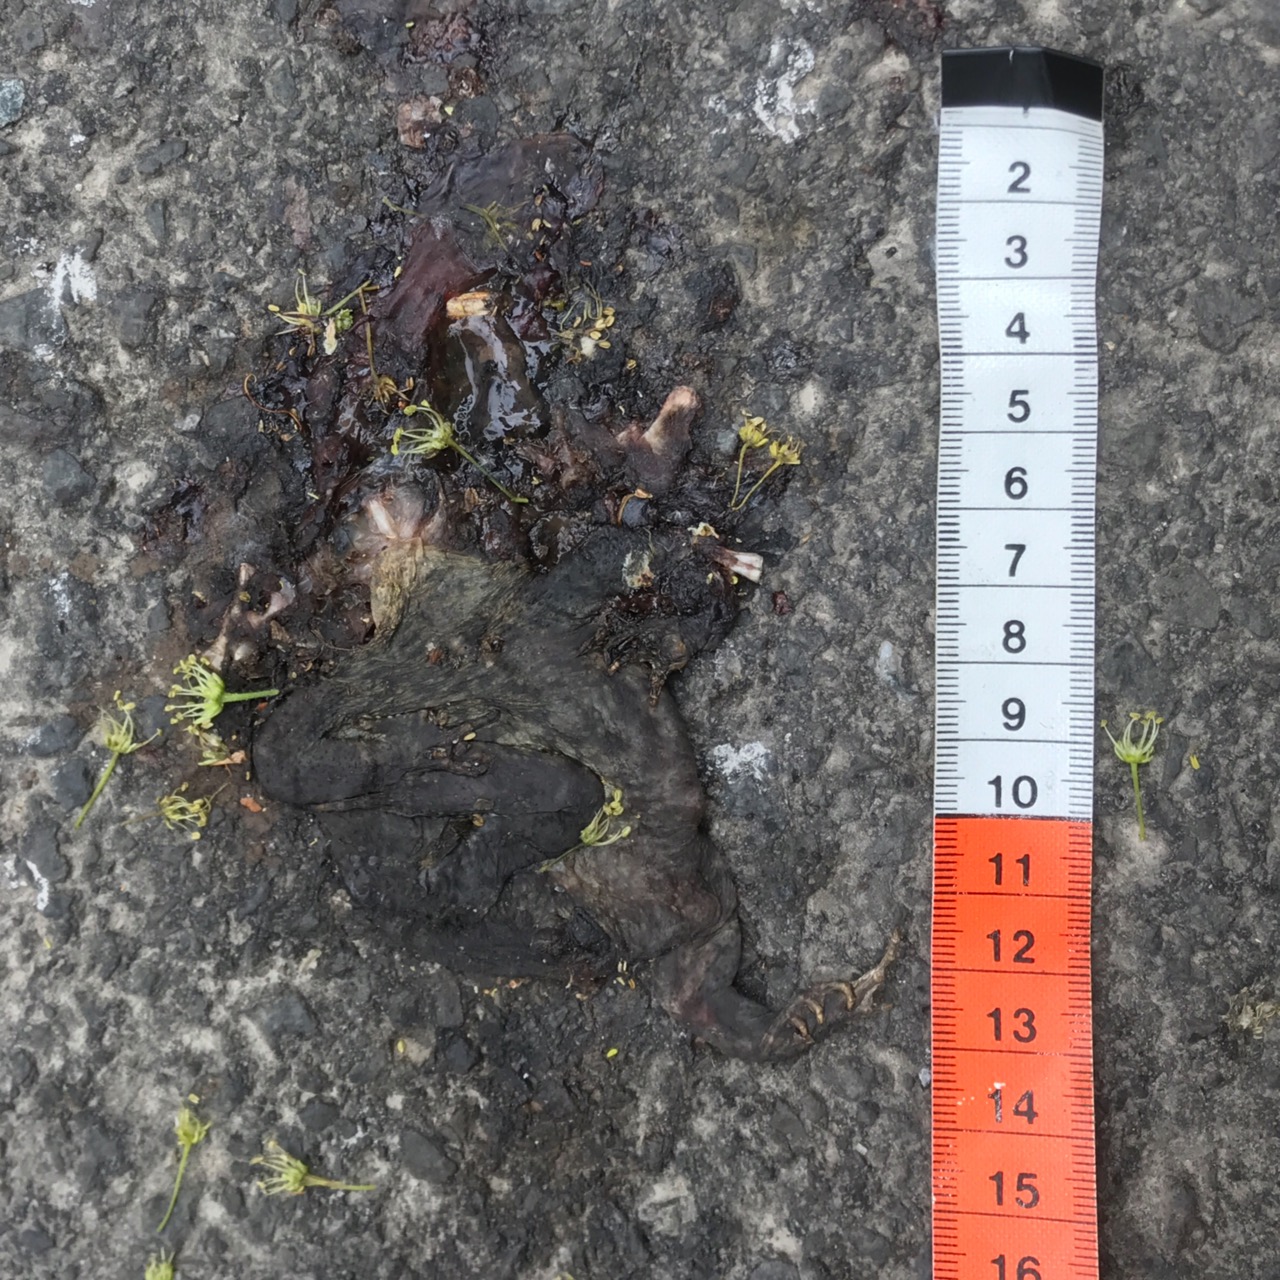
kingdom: Animalia
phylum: Chordata
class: Amphibia
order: Anura
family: Bufonidae
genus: Bufo
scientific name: Bufo bufo
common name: Common toad
